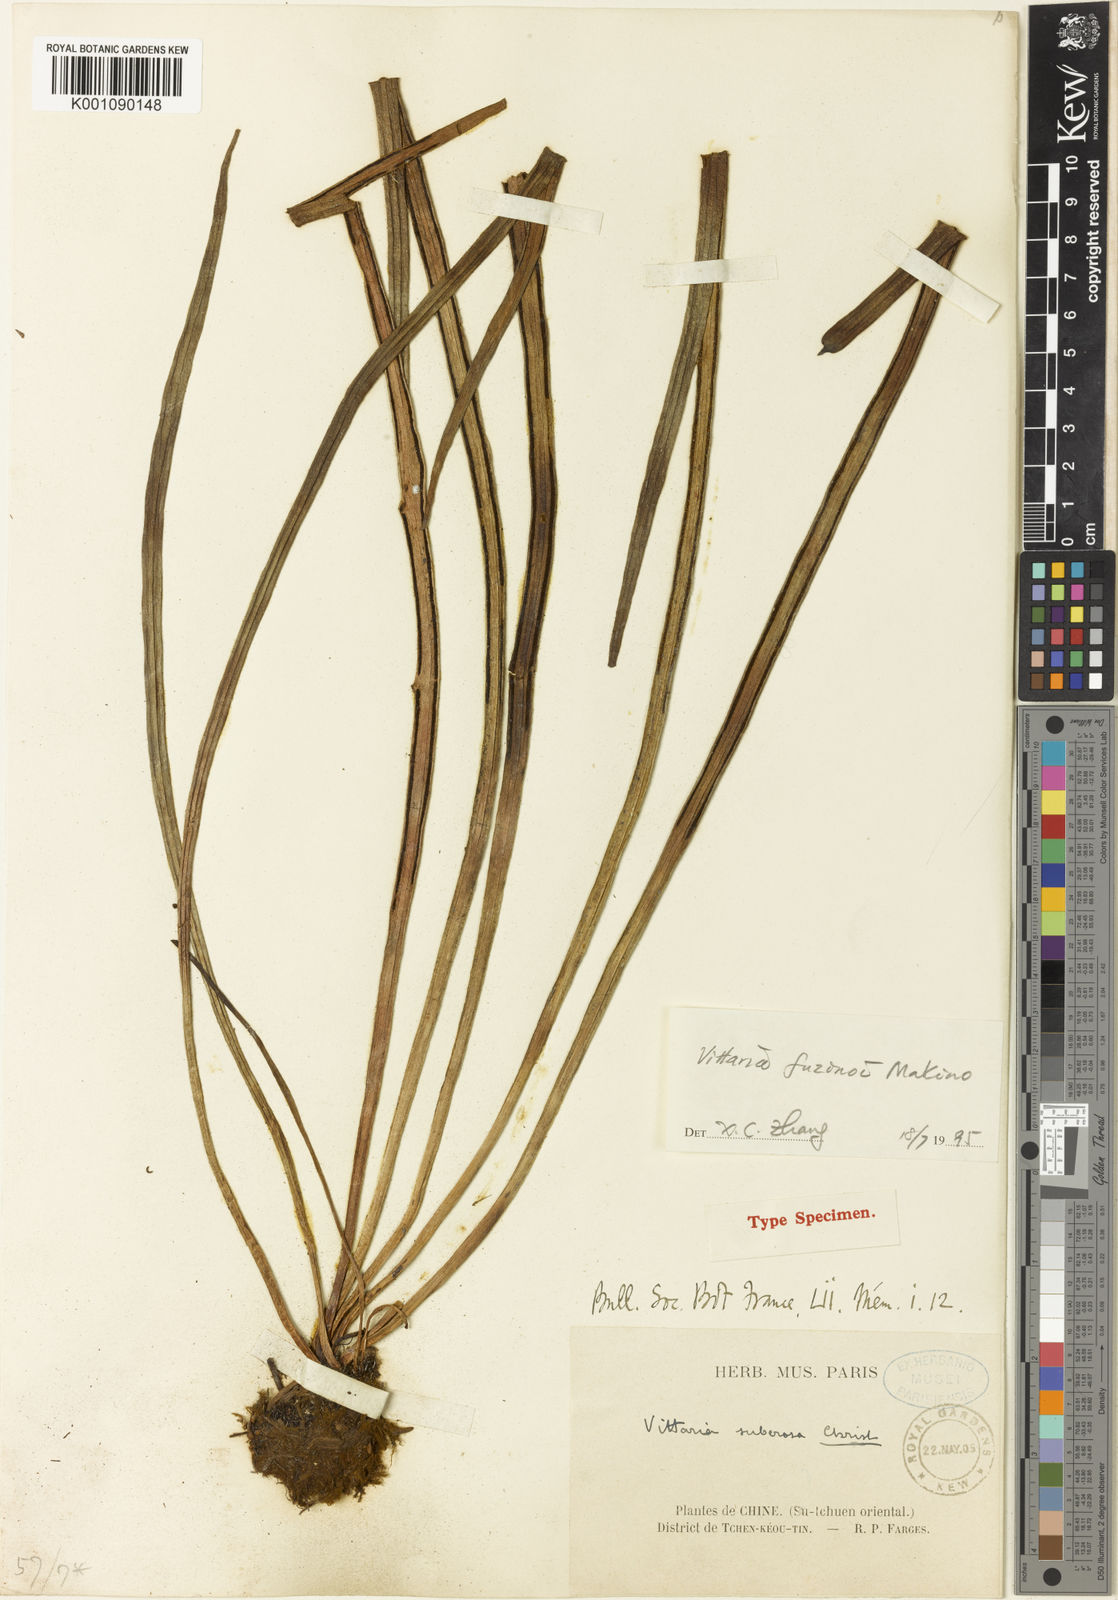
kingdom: Plantae
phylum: Tracheophyta
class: Polypodiopsida
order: Polypodiales
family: Pteridaceae
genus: Haplopteris
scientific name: Haplopteris fudzinoi
